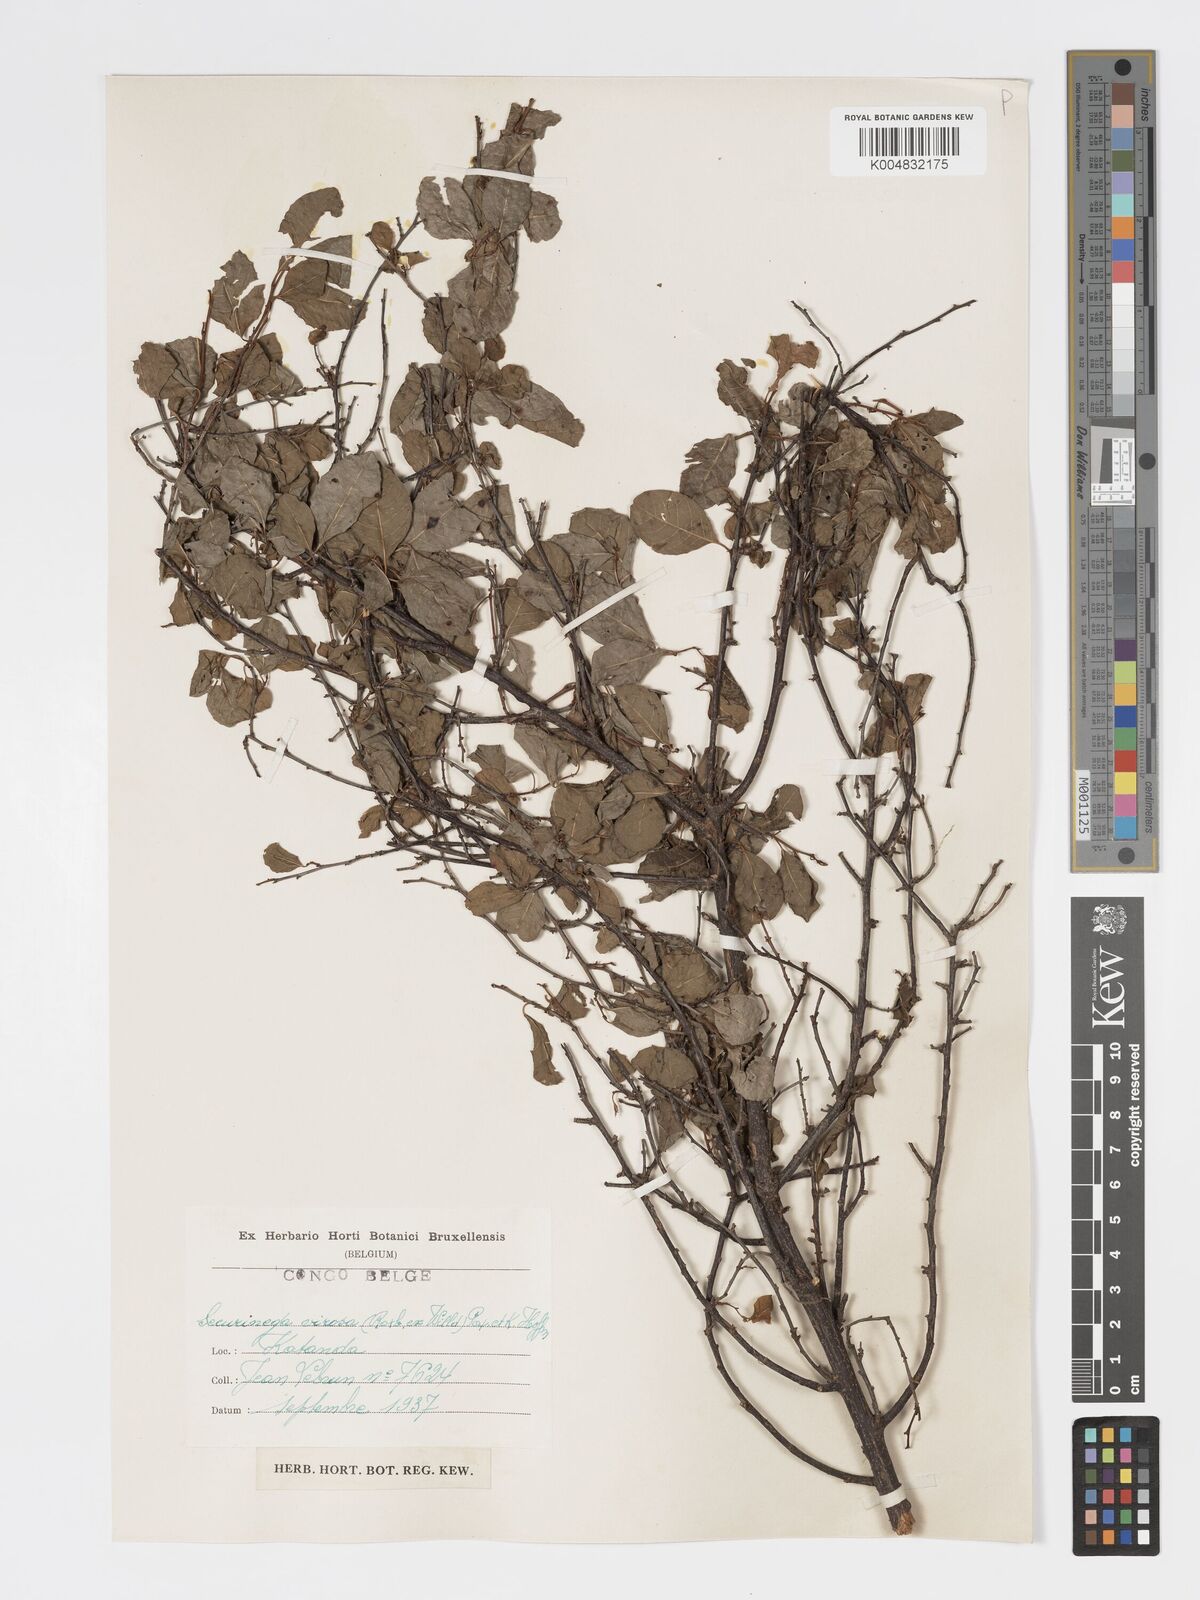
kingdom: Plantae
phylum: Tracheophyta
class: Magnoliopsida
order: Malpighiales
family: Phyllanthaceae
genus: Flueggea
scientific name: Flueggea virosa
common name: Common bushweed
